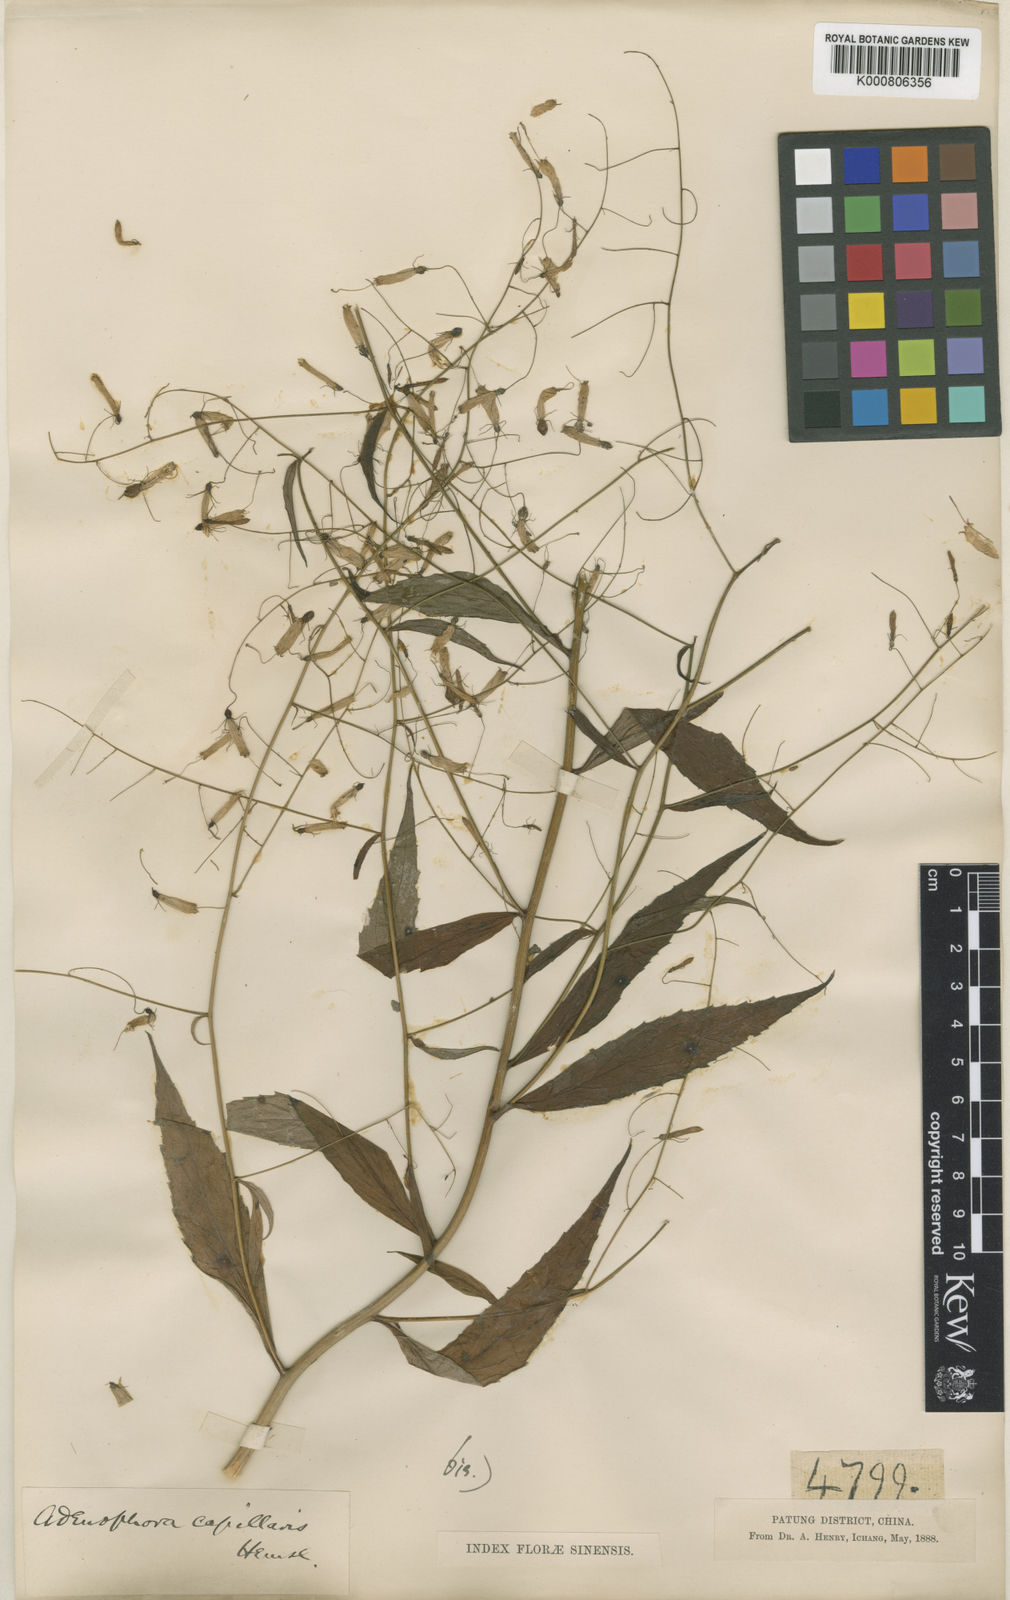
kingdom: Plantae
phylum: Tracheophyta
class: Magnoliopsida
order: Asterales
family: Campanulaceae
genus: Adenophora
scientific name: Adenophora capillaris
